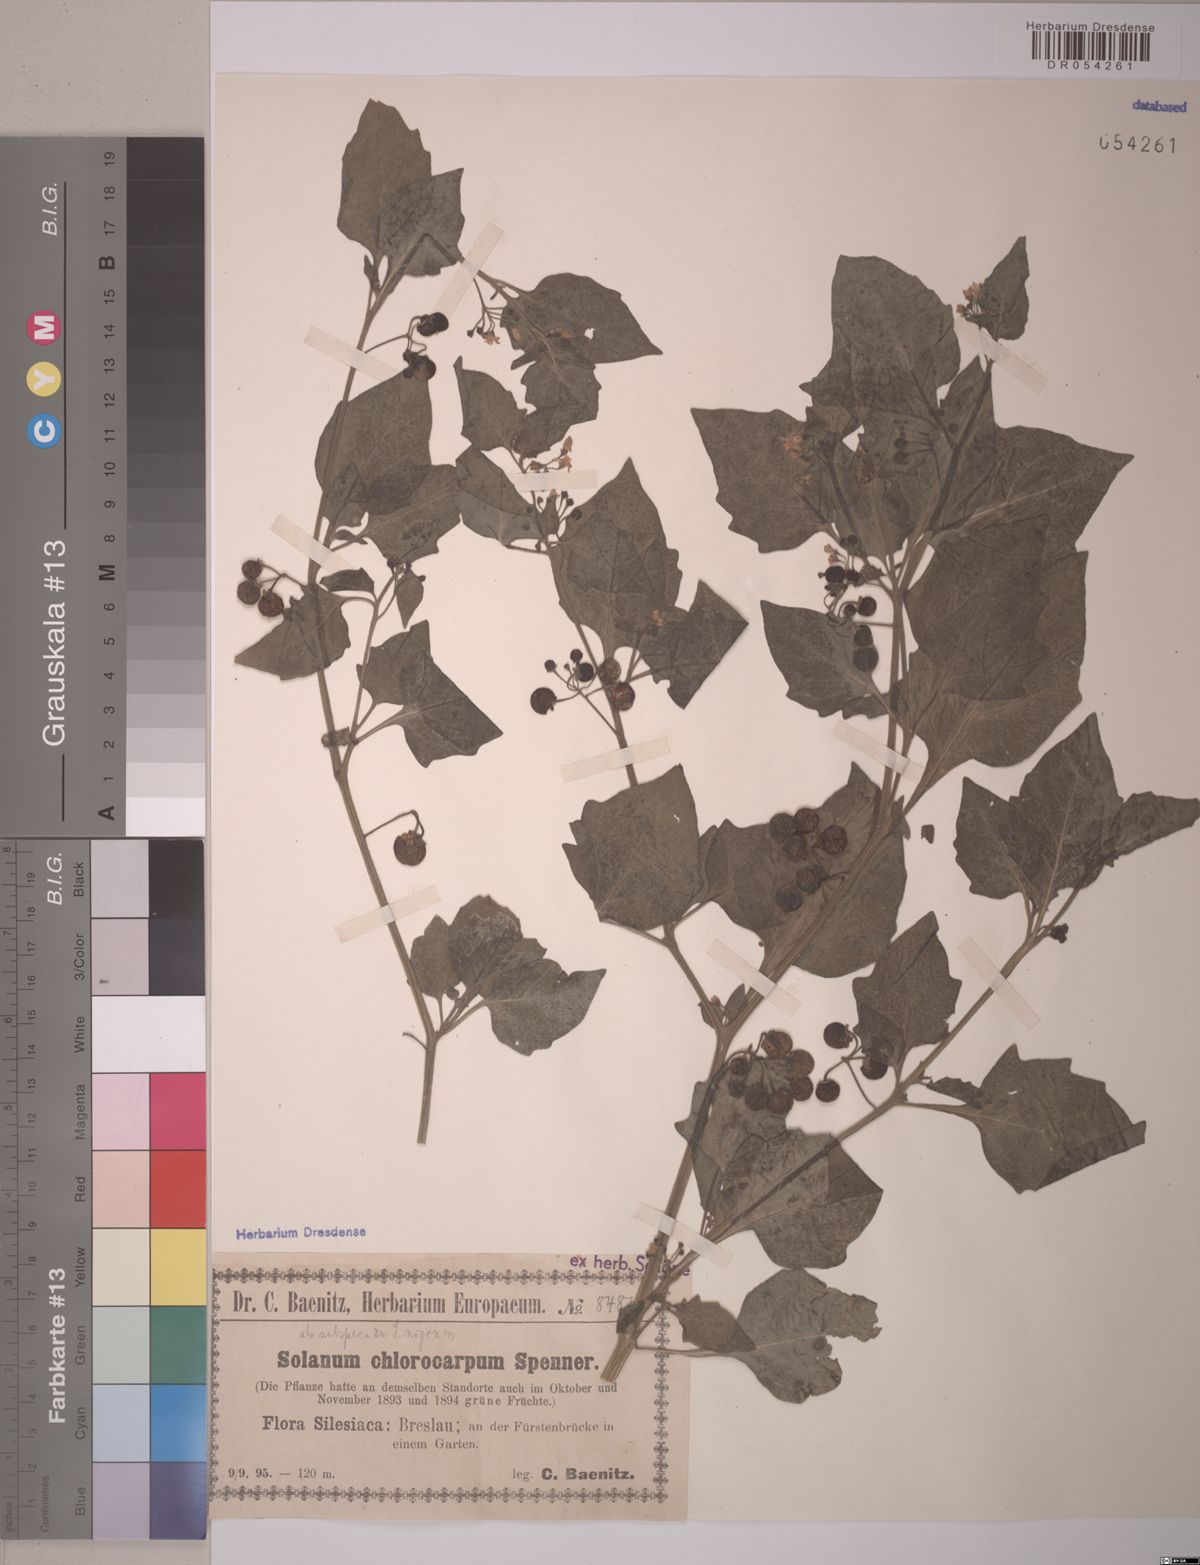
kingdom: Plantae
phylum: Tracheophyta
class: Magnoliopsida
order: Solanales
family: Solanaceae
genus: Solanum
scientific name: Solanum nigrum
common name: Black nightshade
